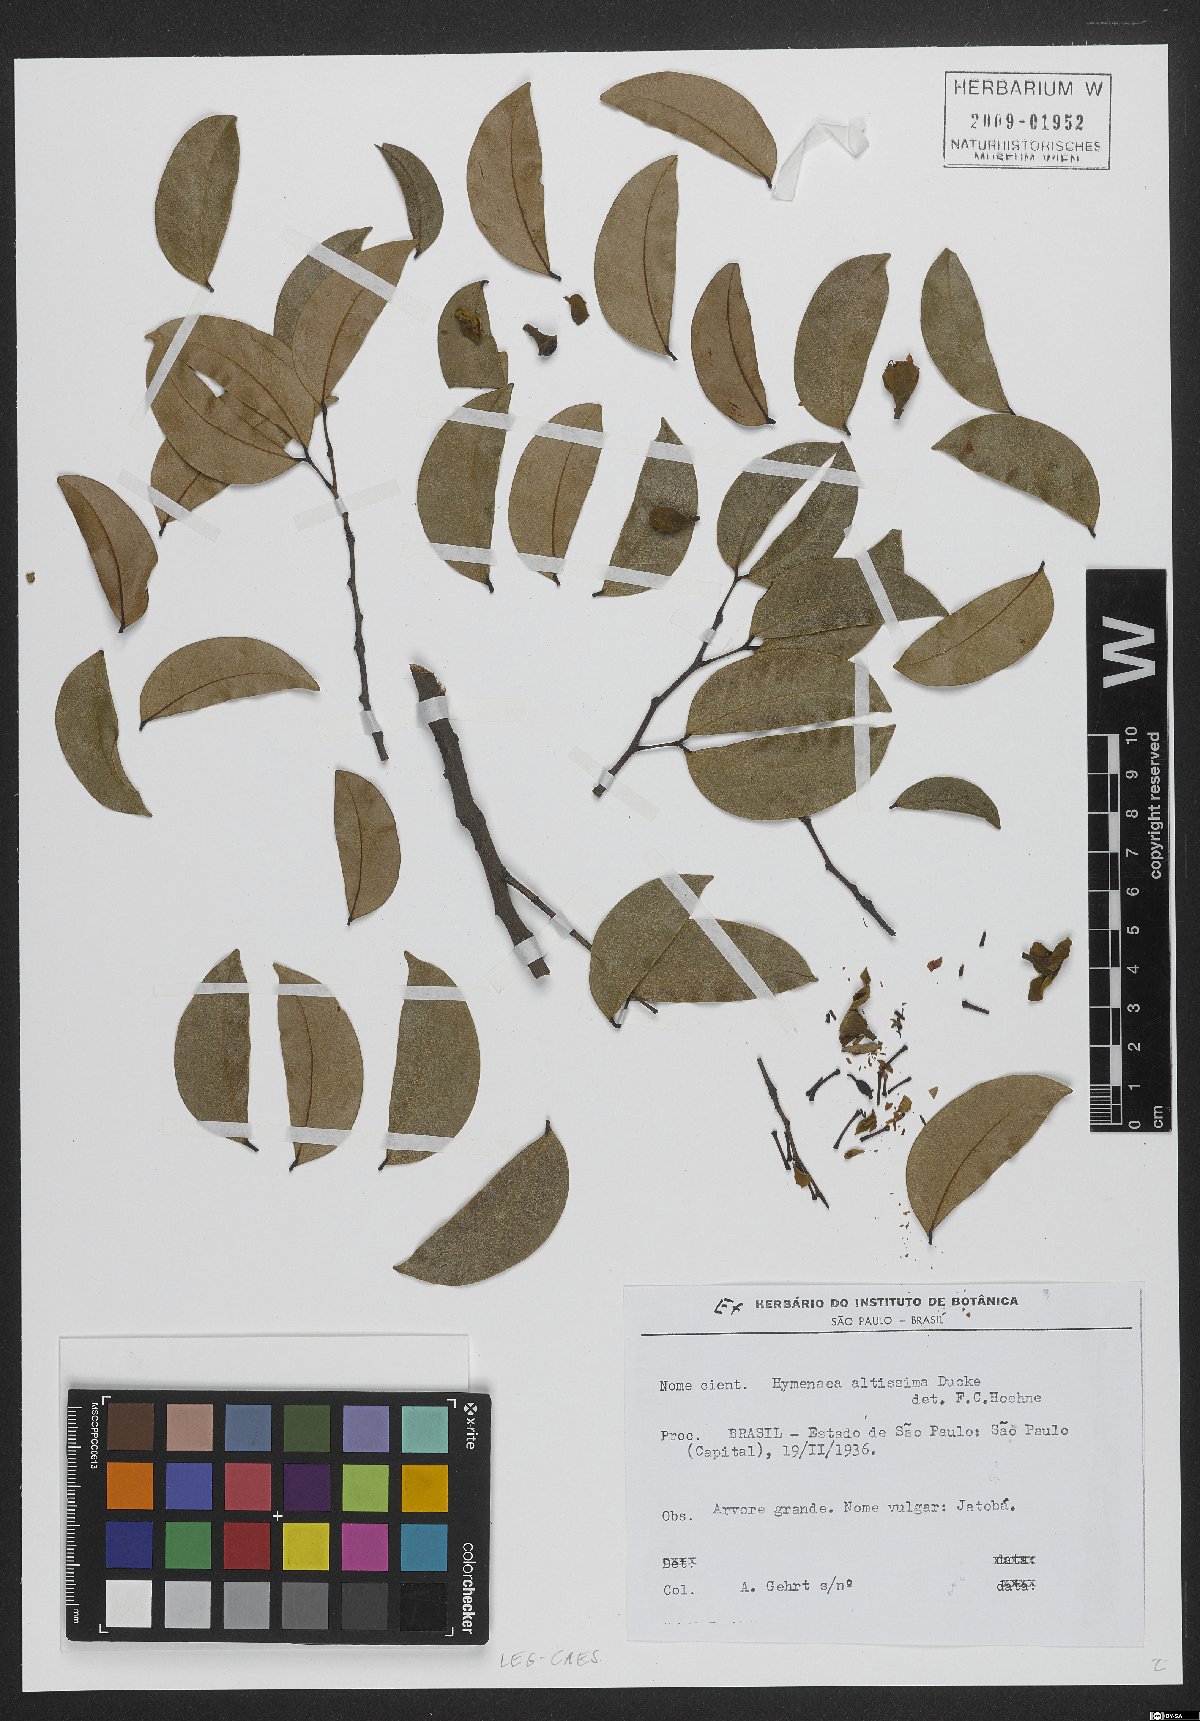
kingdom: Plantae
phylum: Tracheophyta
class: Magnoliopsida
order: Fabales
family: Fabaceae
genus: Hymenaea
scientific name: Hymenaea altissima
